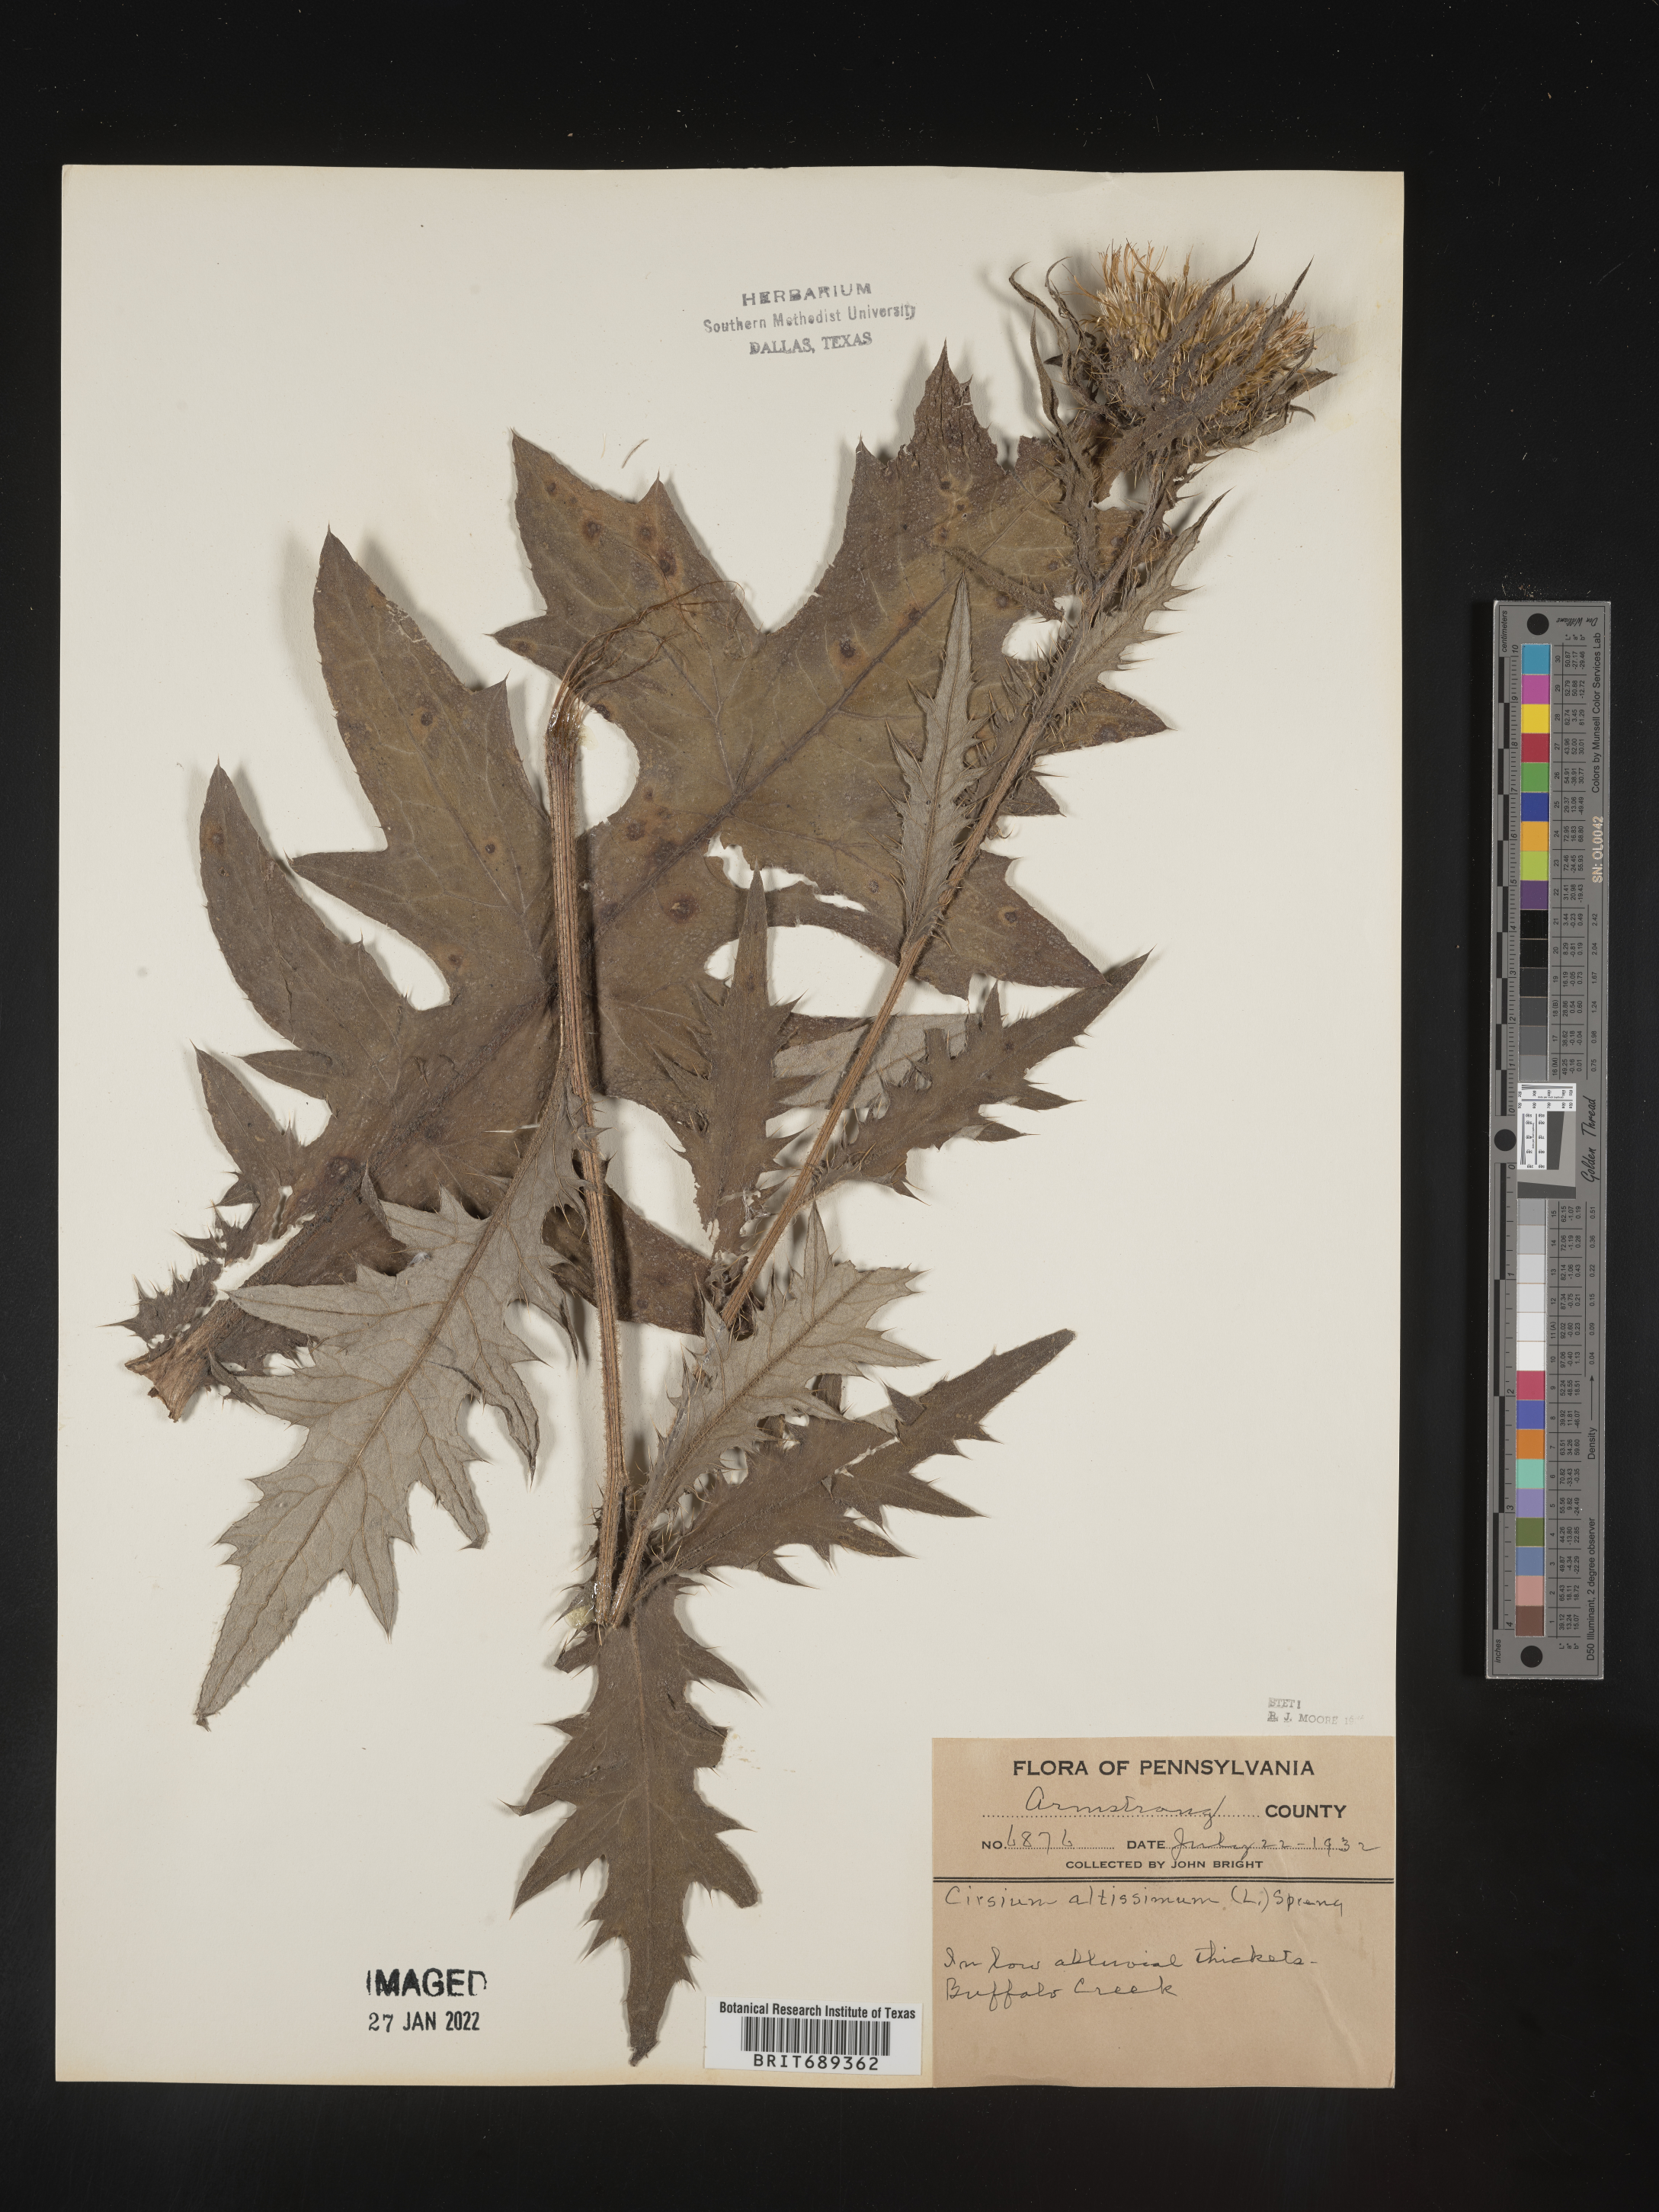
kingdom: Plantae
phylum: Tracheophyta
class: Magnoliopsida
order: Asterales
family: Asteraceae
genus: Cirsium
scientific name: Cirsium altissimum
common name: Roadside thistle
